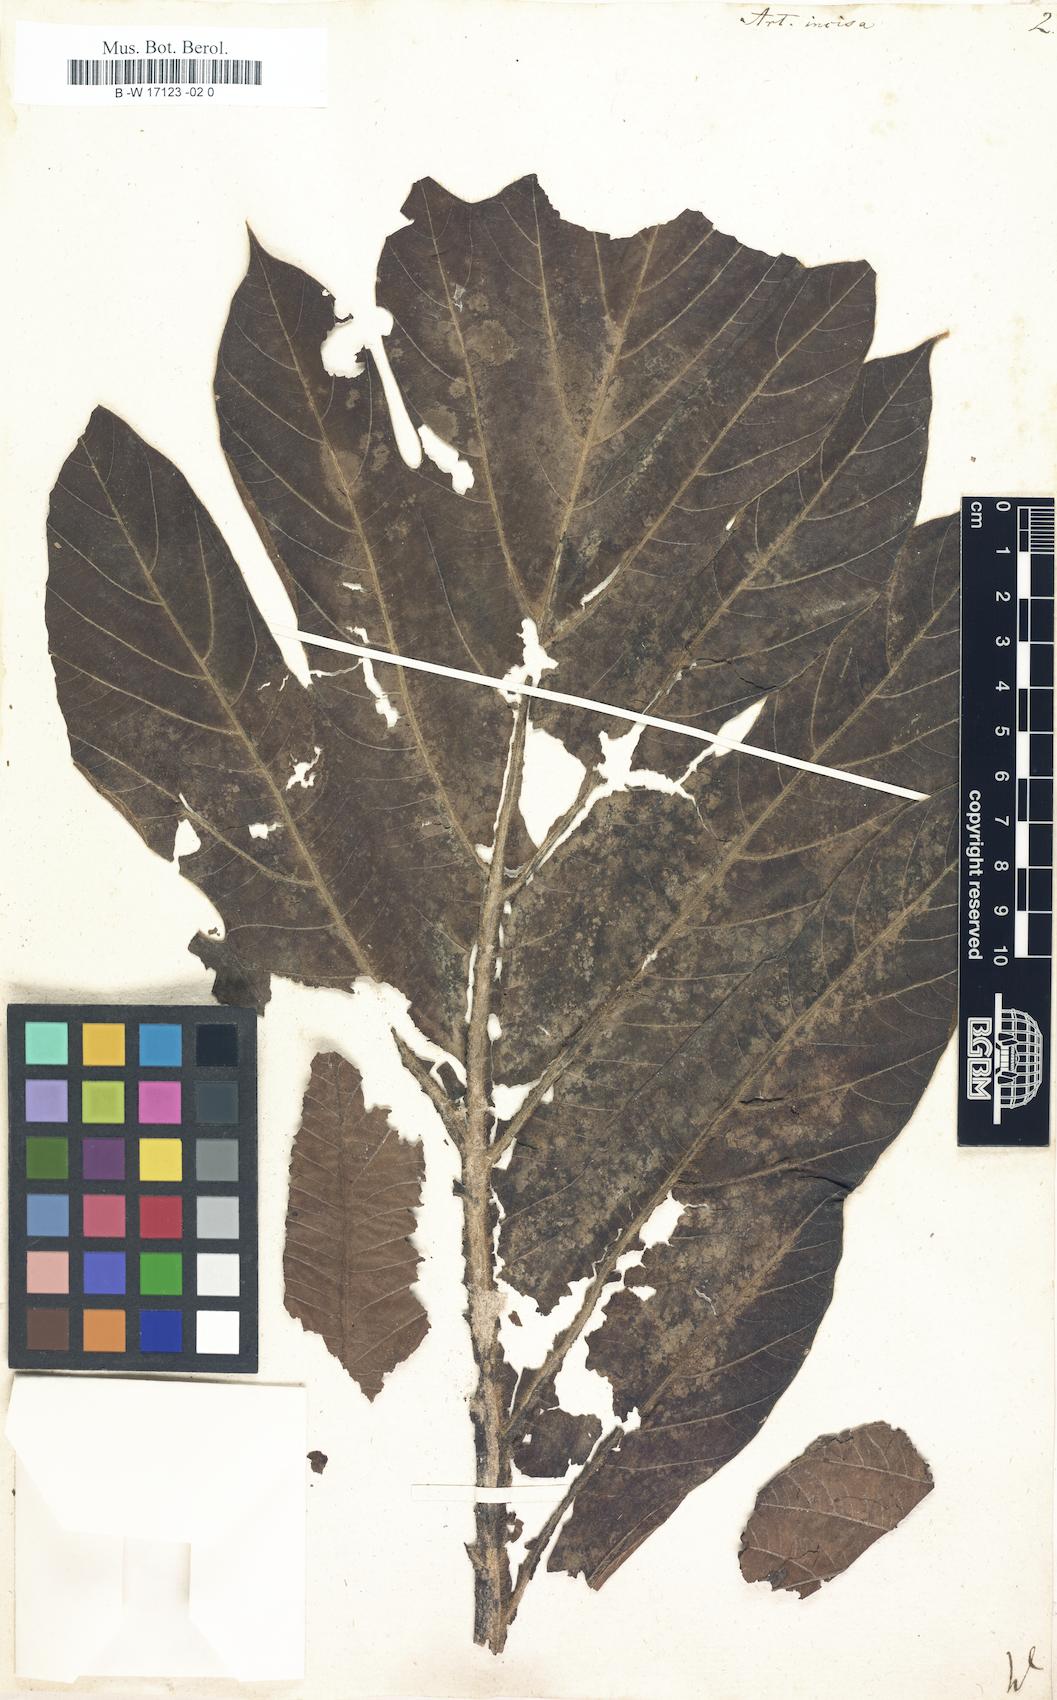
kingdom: Plantae
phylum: Tracheophyta
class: Magnoliopsida
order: Rosales
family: Moraceae
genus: Artocarpus
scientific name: Artocarpus altilis
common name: Breadfruit
